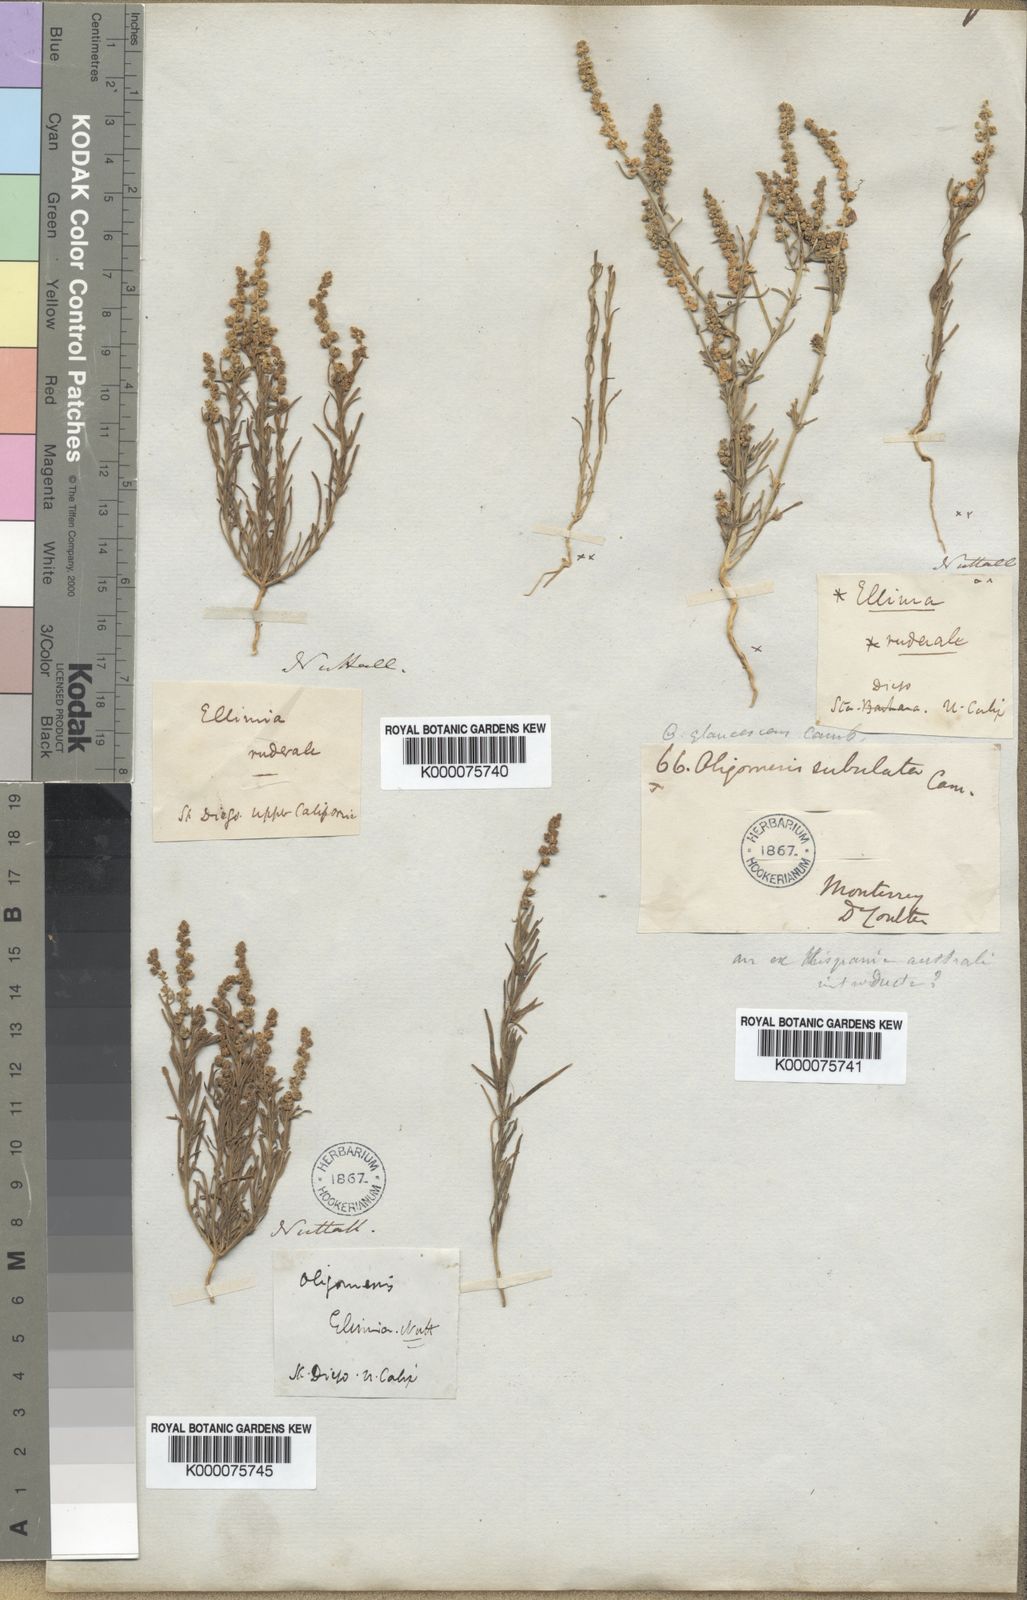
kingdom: Plantae
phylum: Tracheophyta
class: Magnoliopsida
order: Brassicales
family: Resedaceae
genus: Oligomeris
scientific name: Oligomeris
